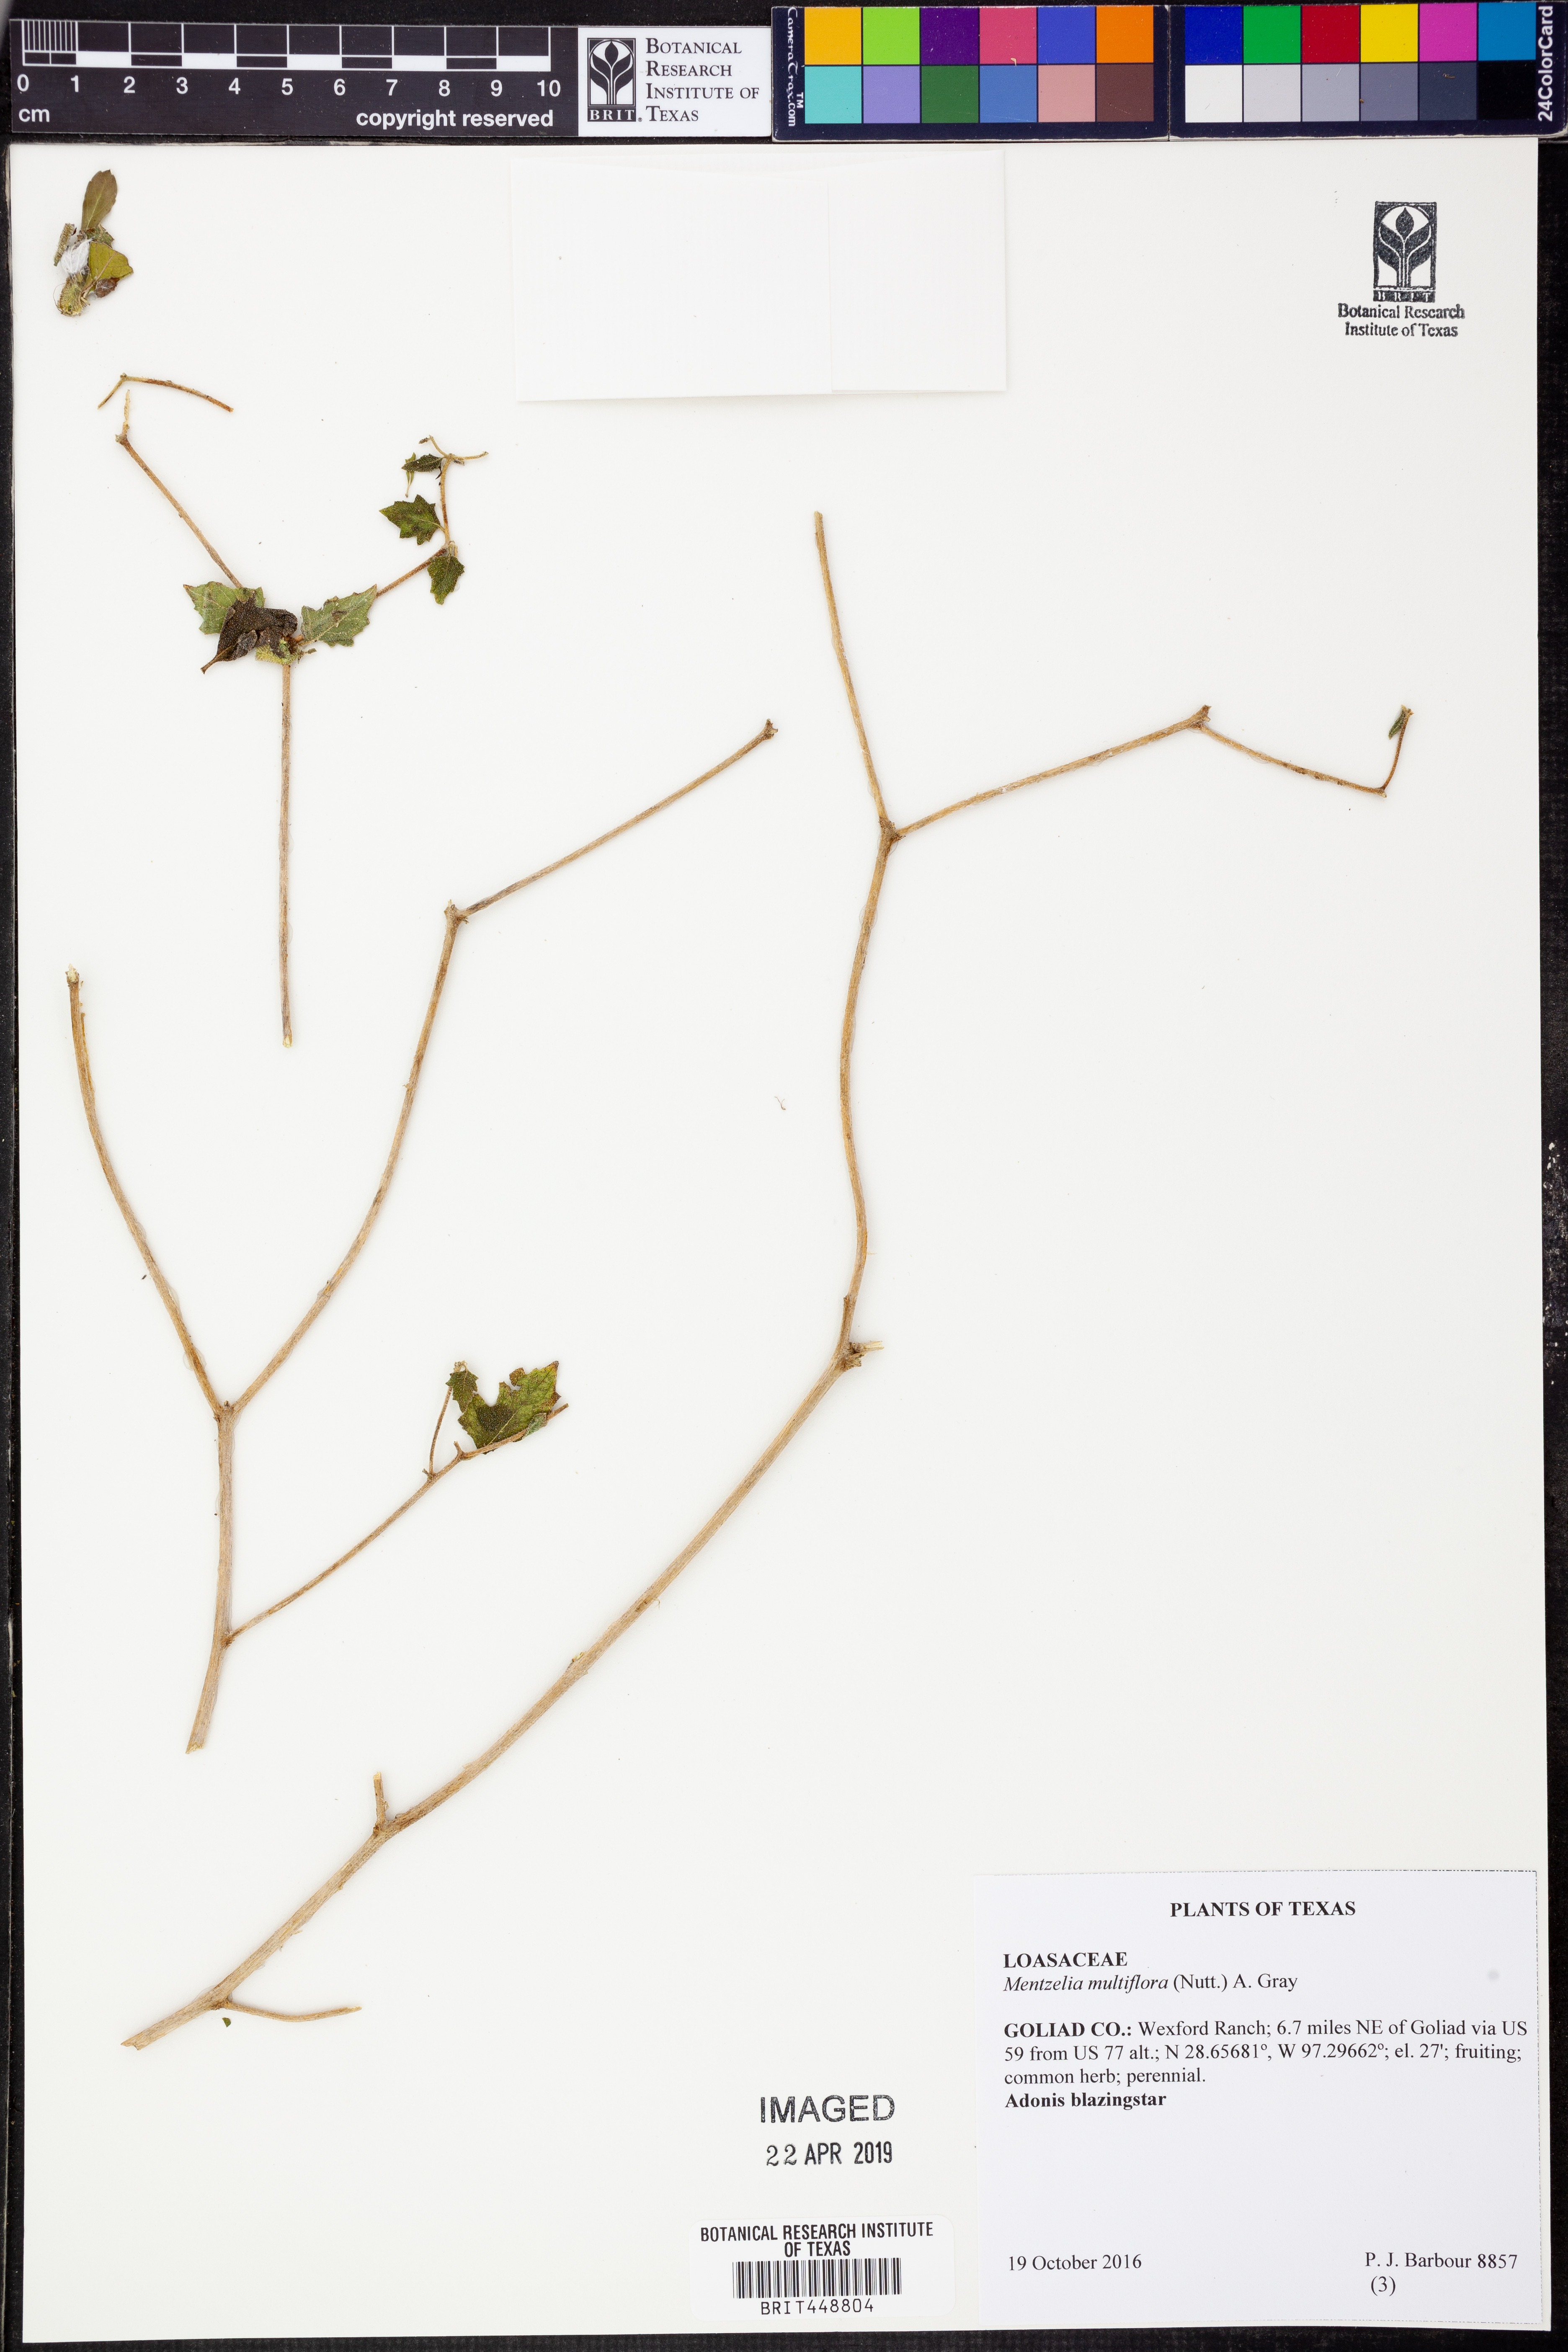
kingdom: Plantae
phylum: Tracheophyta
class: Magnoliopsida
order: Cornales
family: Loasaceae
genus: Mentzelia
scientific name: Mentzelia multiflora
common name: Adonis blazingstar
